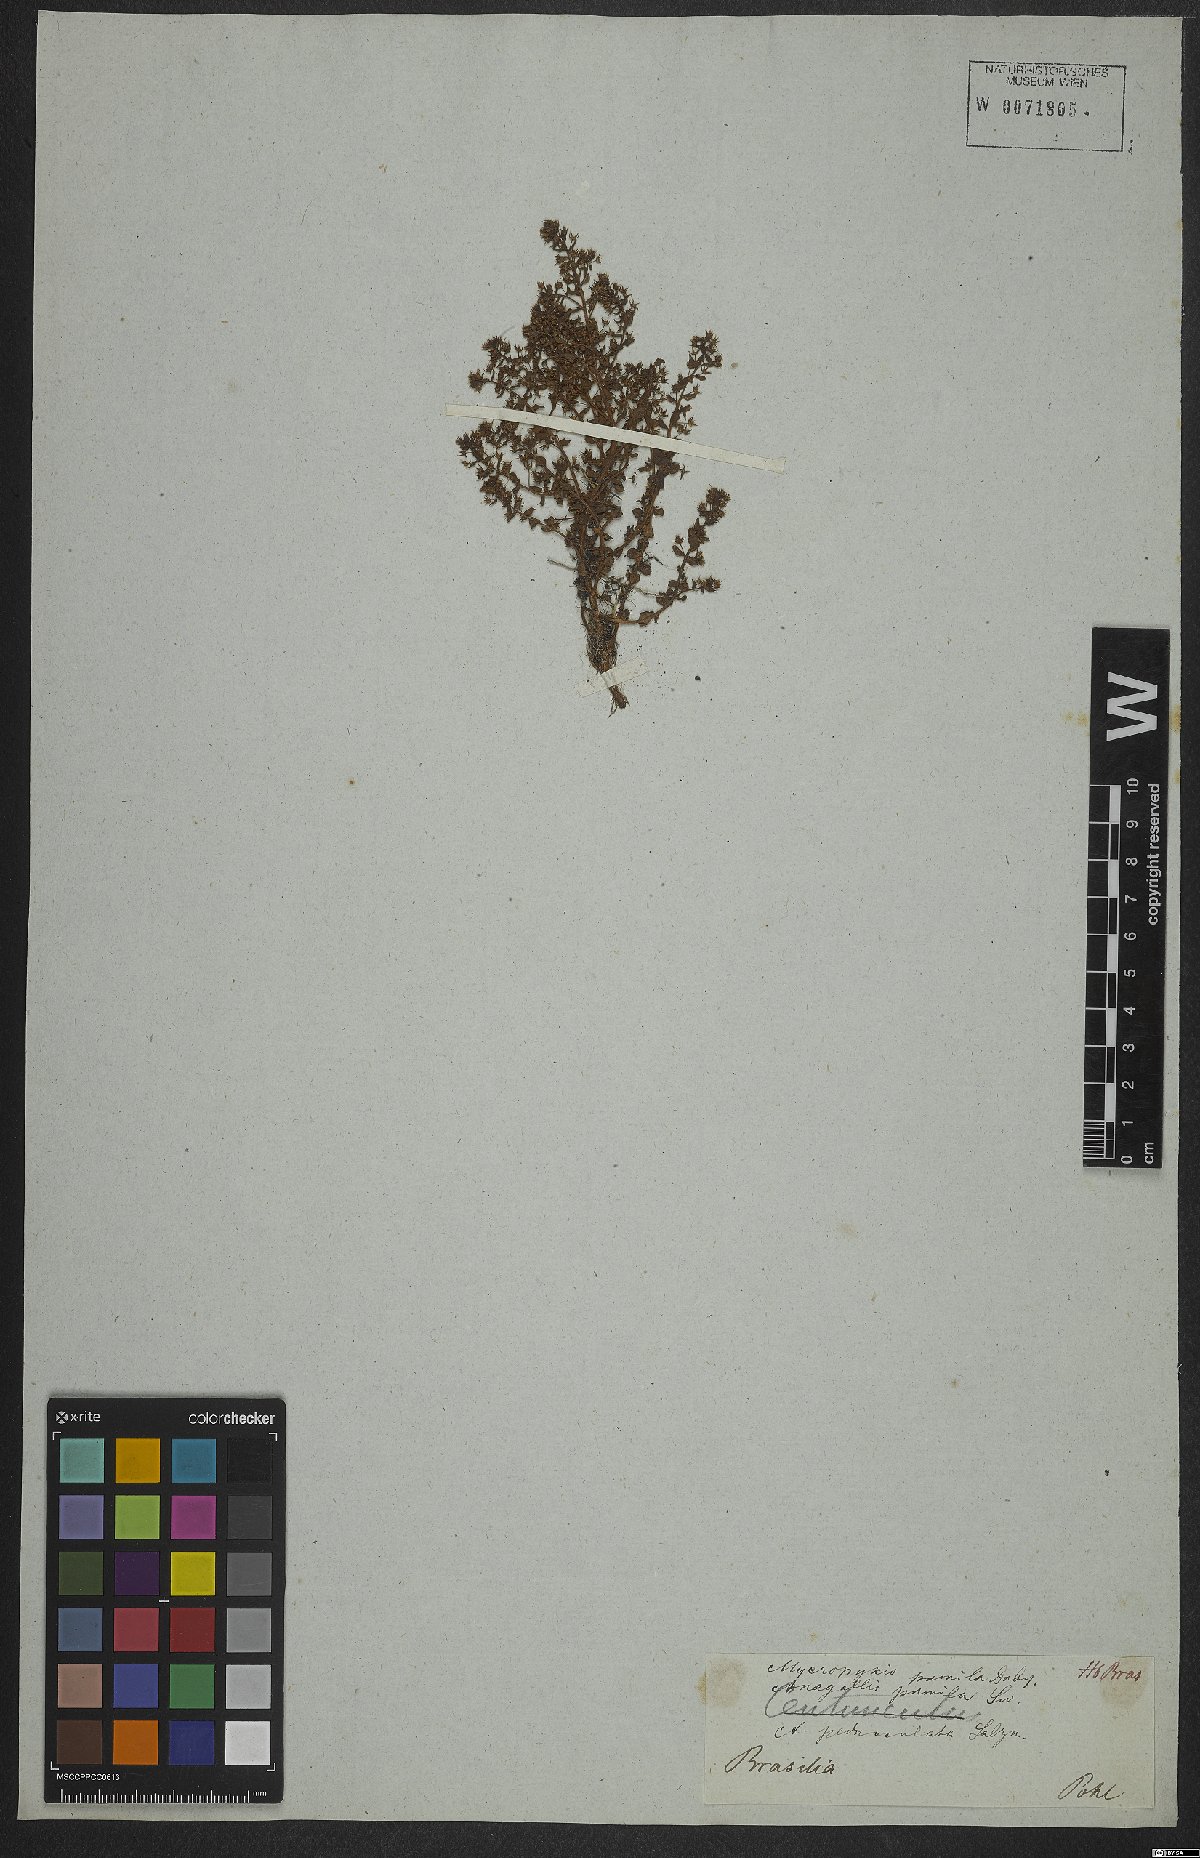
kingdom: Plantae
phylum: Tracheophyta
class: Magnoliopsida
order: Ericales
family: Primulaceae
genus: Lysimachia
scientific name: Lysimachia ovalis
